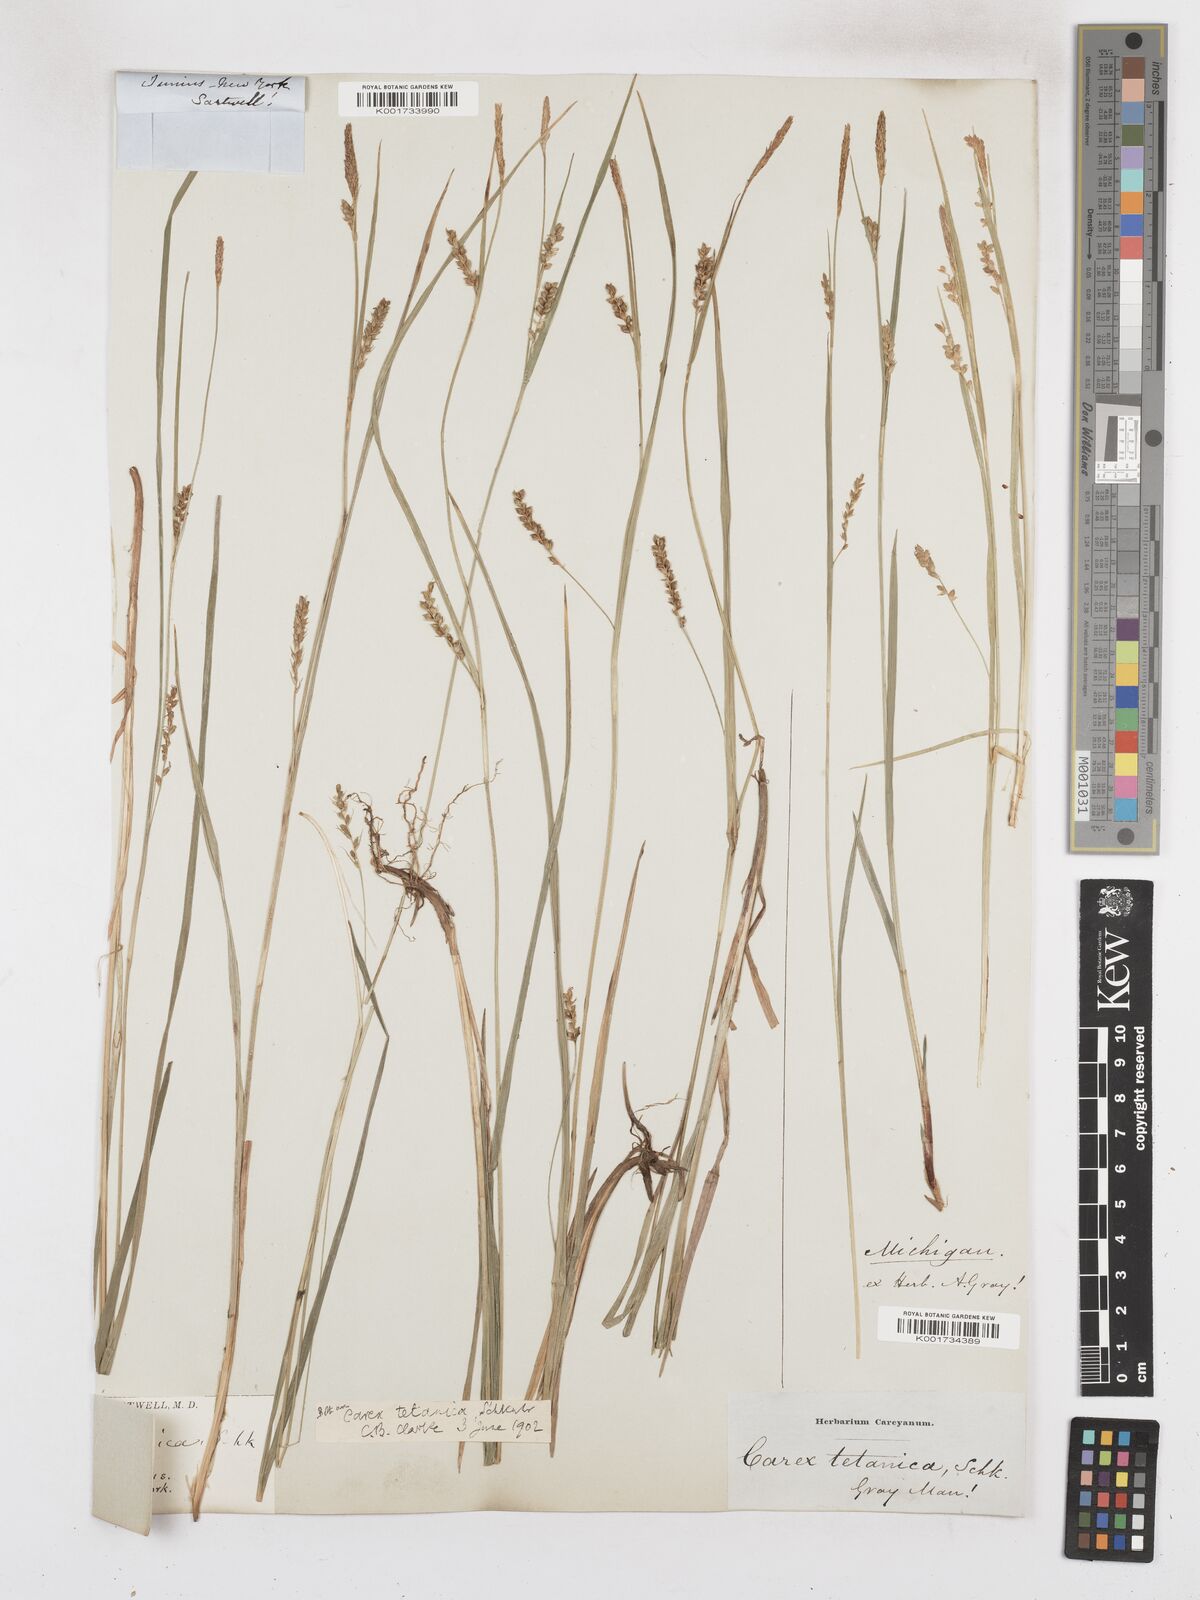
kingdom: Plantae
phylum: Tracheophyta
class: Liliopsida
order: Poales
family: Cyperaceae
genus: Carex
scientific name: Carex tetanica
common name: Rigid sedge
